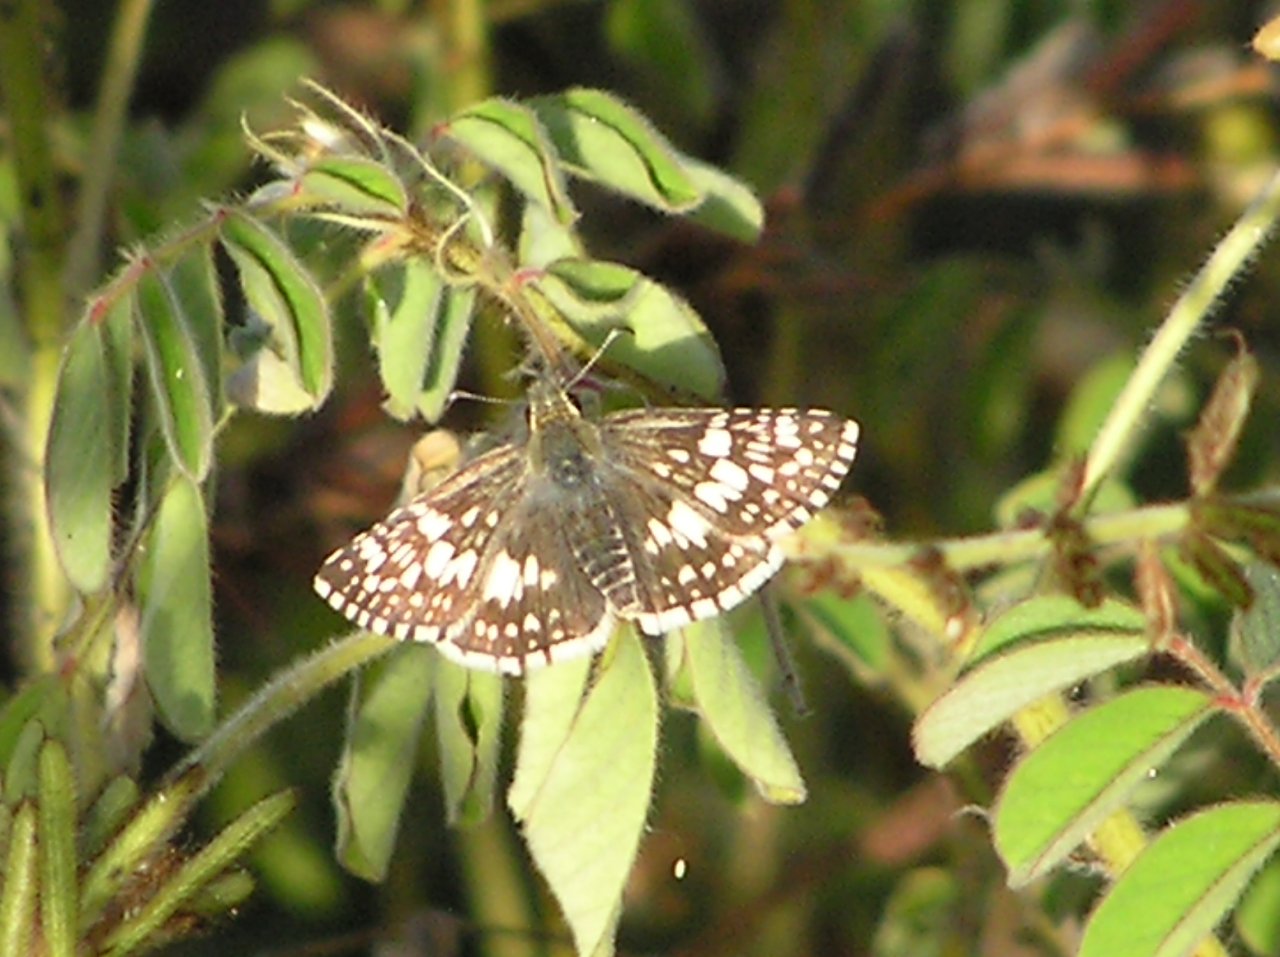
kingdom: Animalia
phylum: Arthropoda
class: Insecta
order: Lepidoptera
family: Hesperiidae
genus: Pyrgus
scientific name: Pyrgus communis
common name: White Checkered-Skipper
